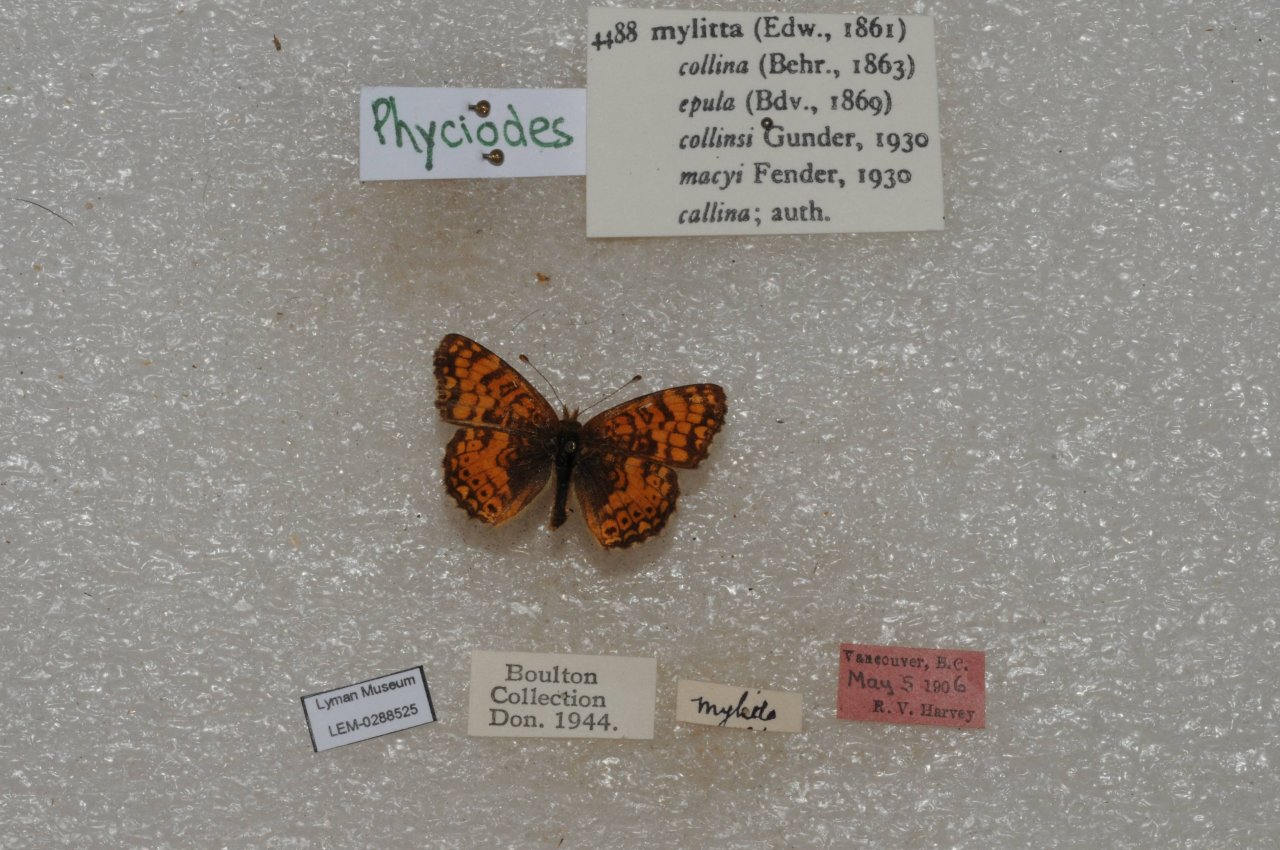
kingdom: Animalia
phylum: Arthropoda
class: Insecta
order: Lepidoptera
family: Nymphalidae
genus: Eresia
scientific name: Eresia aveyrona
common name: Mylitta Crescent
